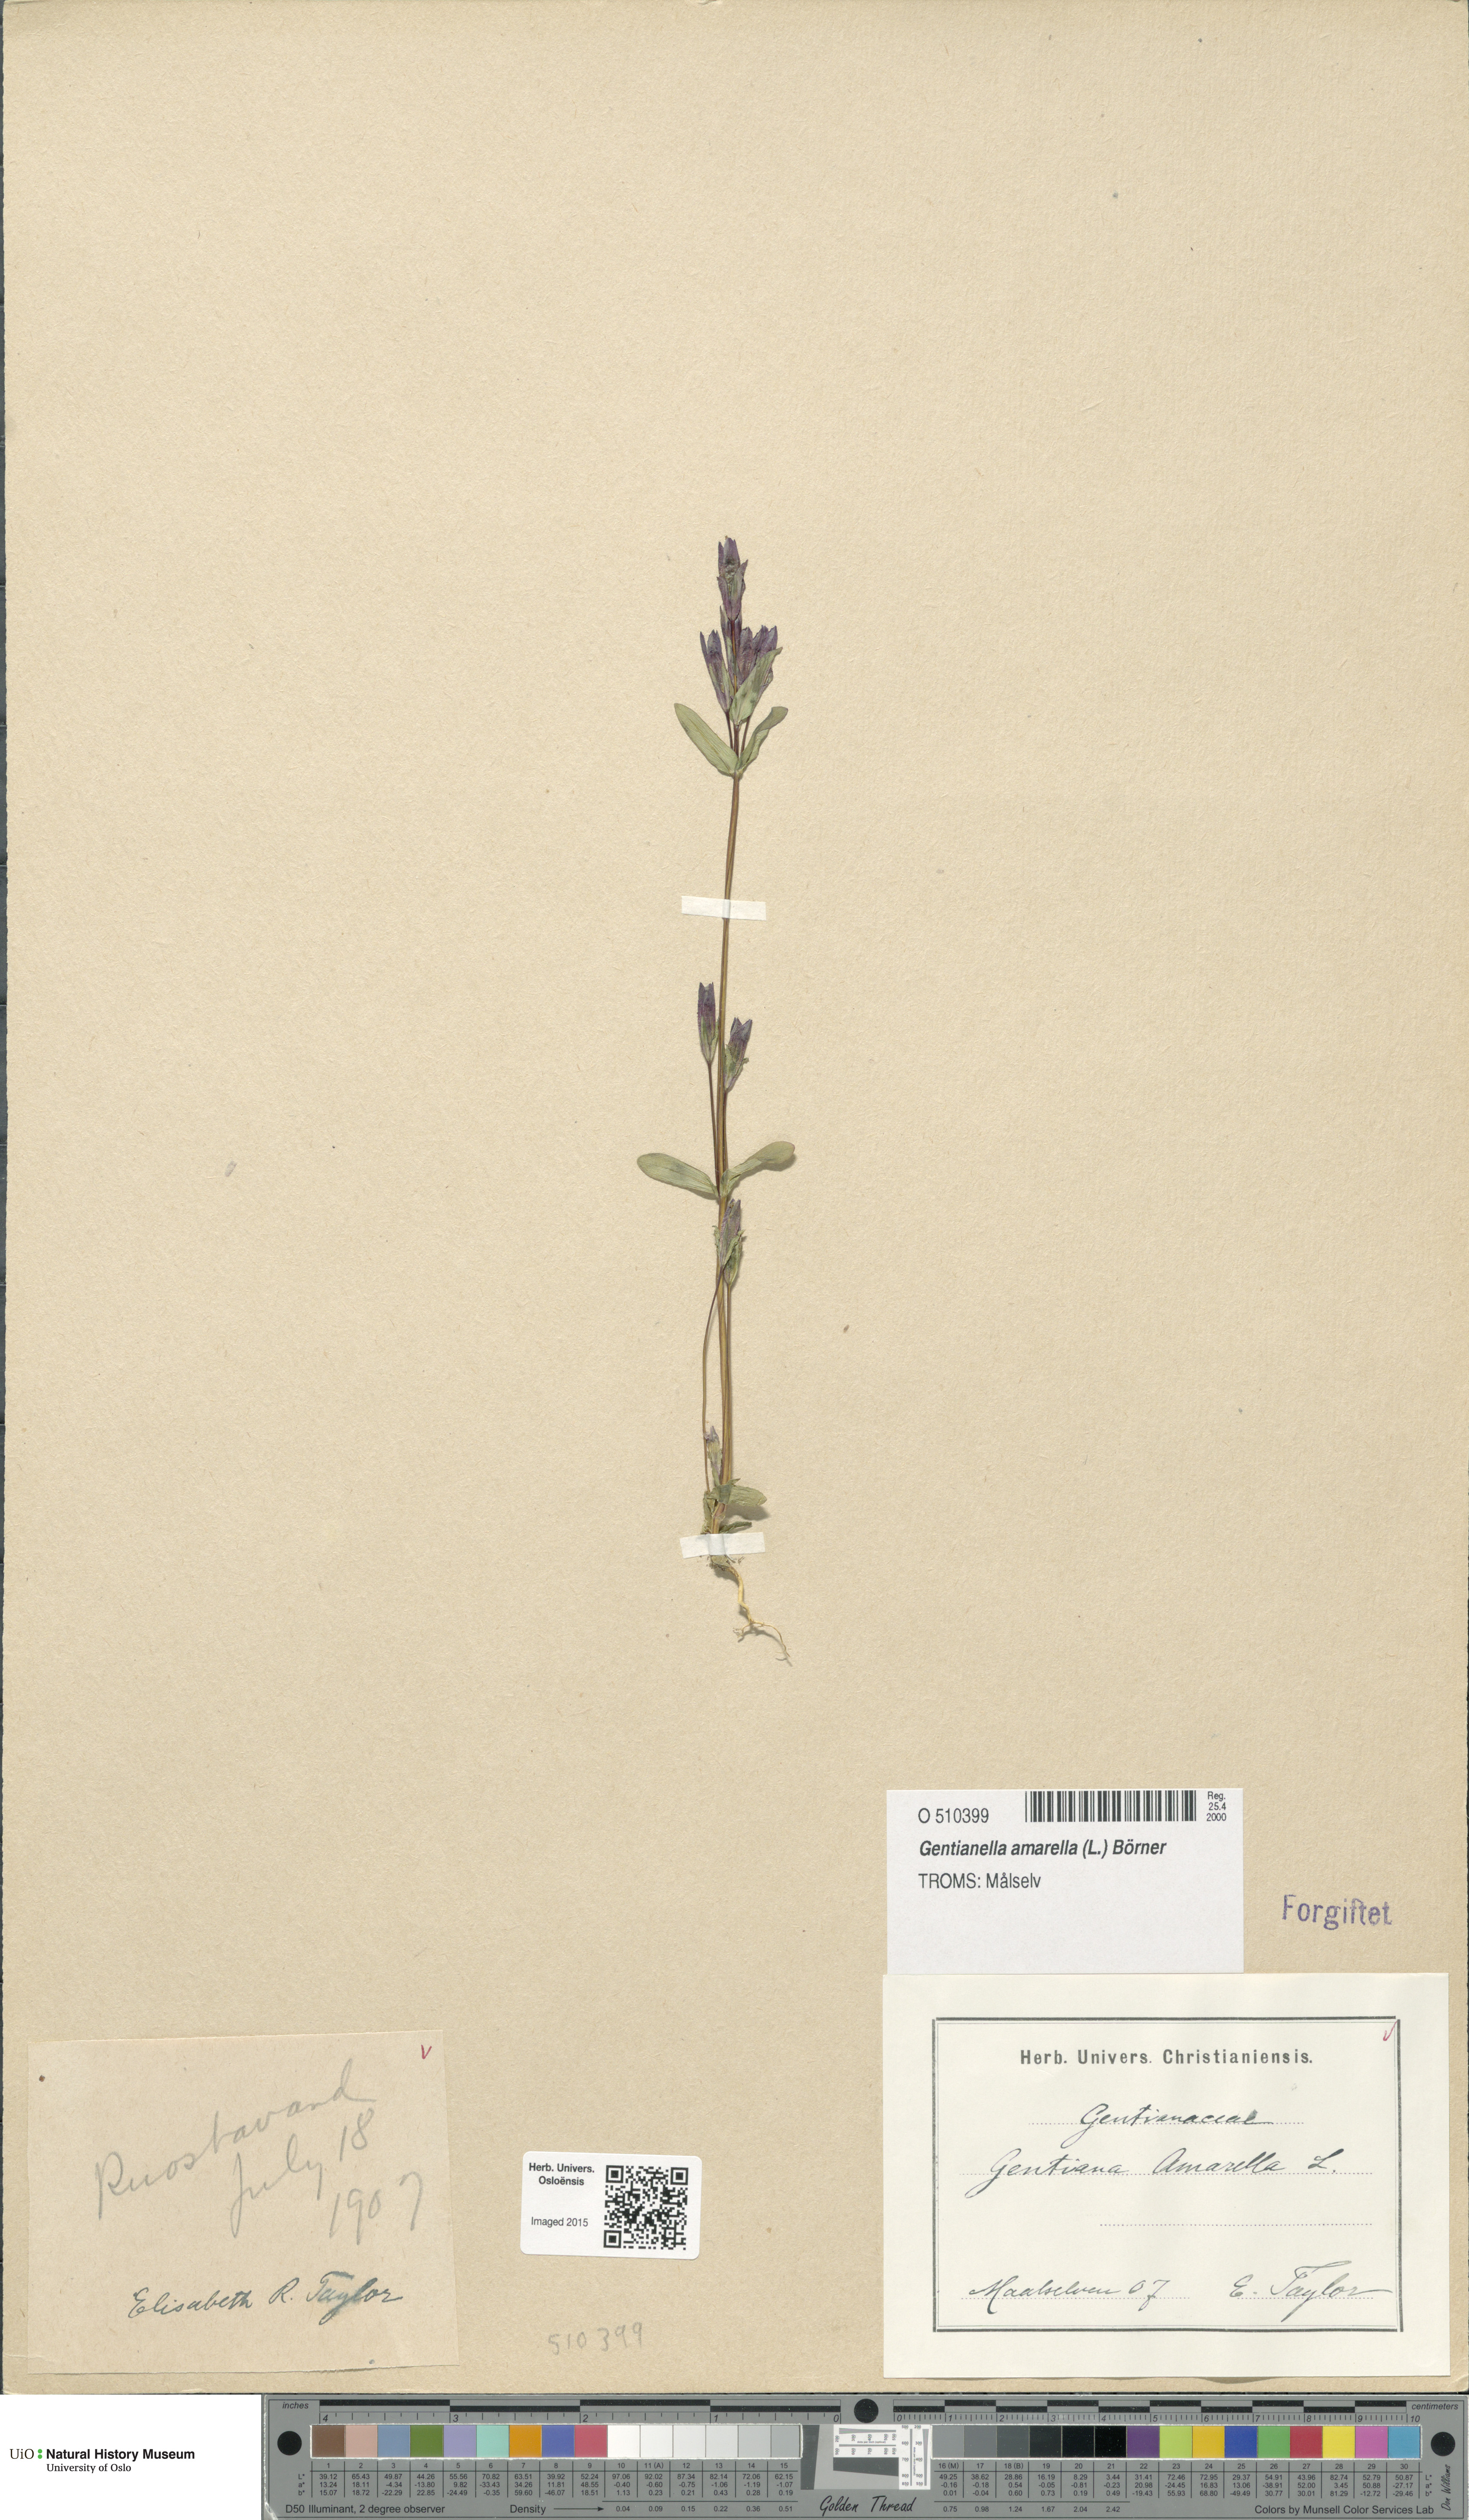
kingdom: Plantae
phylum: Tracheophyta
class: Magnoliopsida
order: Gentianales
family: Gentianaceae
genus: Gentianella
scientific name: Gentianella amarella
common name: Autumn gentian
